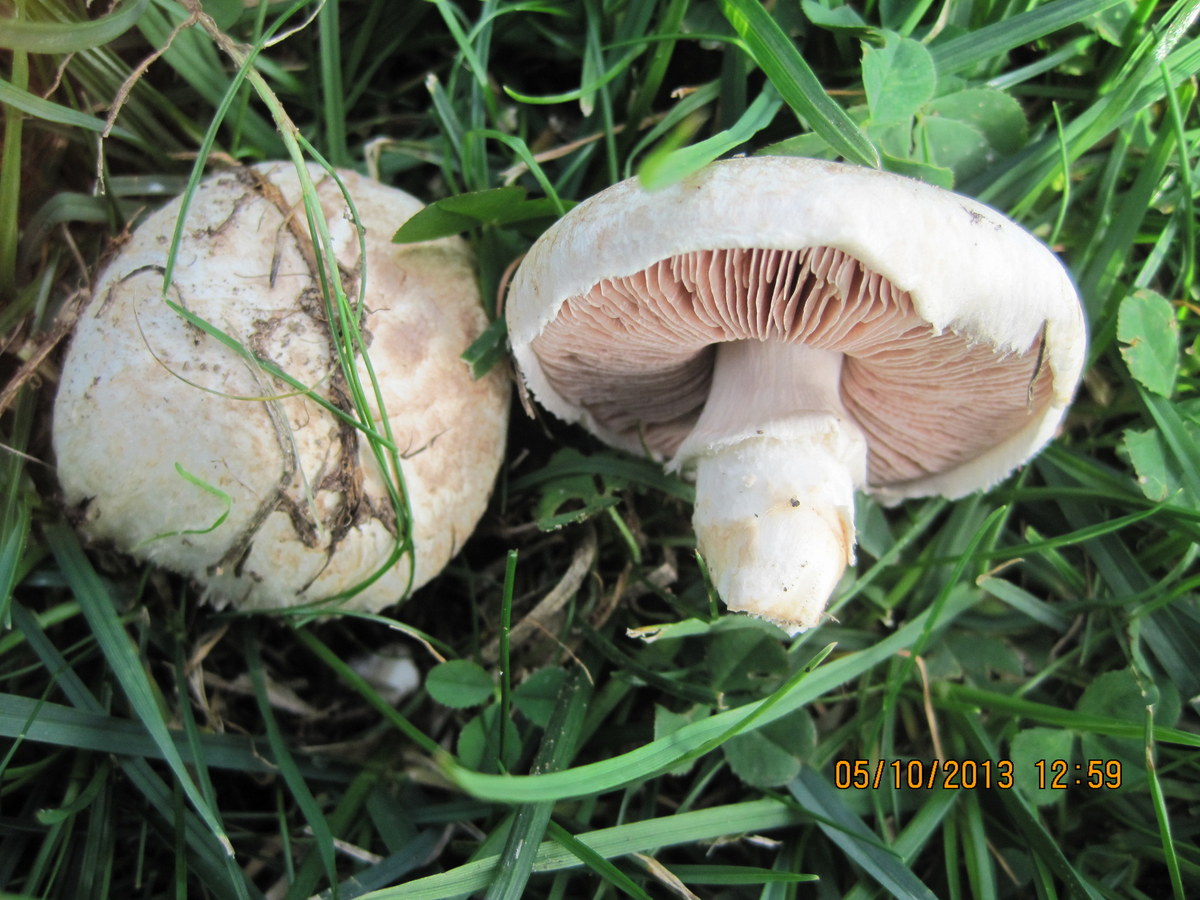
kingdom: Fungi
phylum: Basidiomycota
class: Agaricomycetes
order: Agaricales
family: Agaricaceae
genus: Agaricus
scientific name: Agaricus litoralis
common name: kyst-champignon
